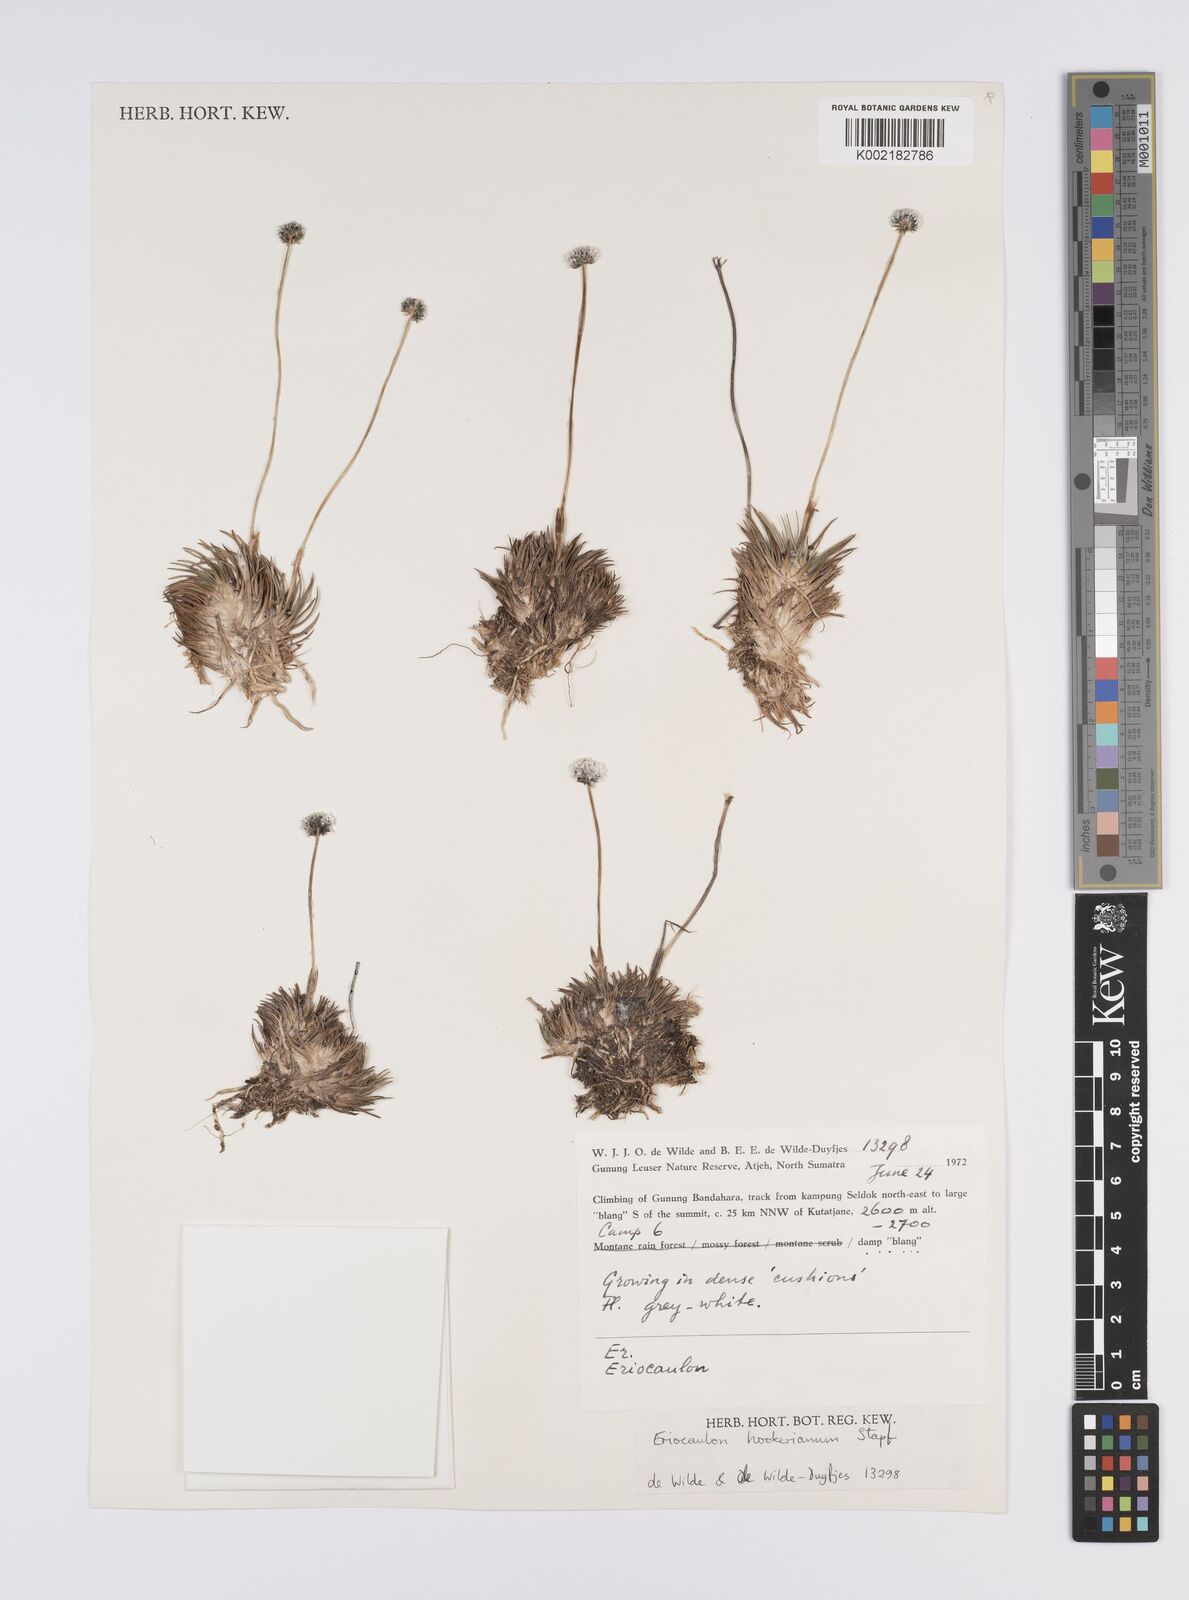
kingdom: Plantae
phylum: Tracheophyta
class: Liliopsida
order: Poales
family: Eriocaulaceae
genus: Eriocaulon
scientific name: Eriocaulon hookerianum
